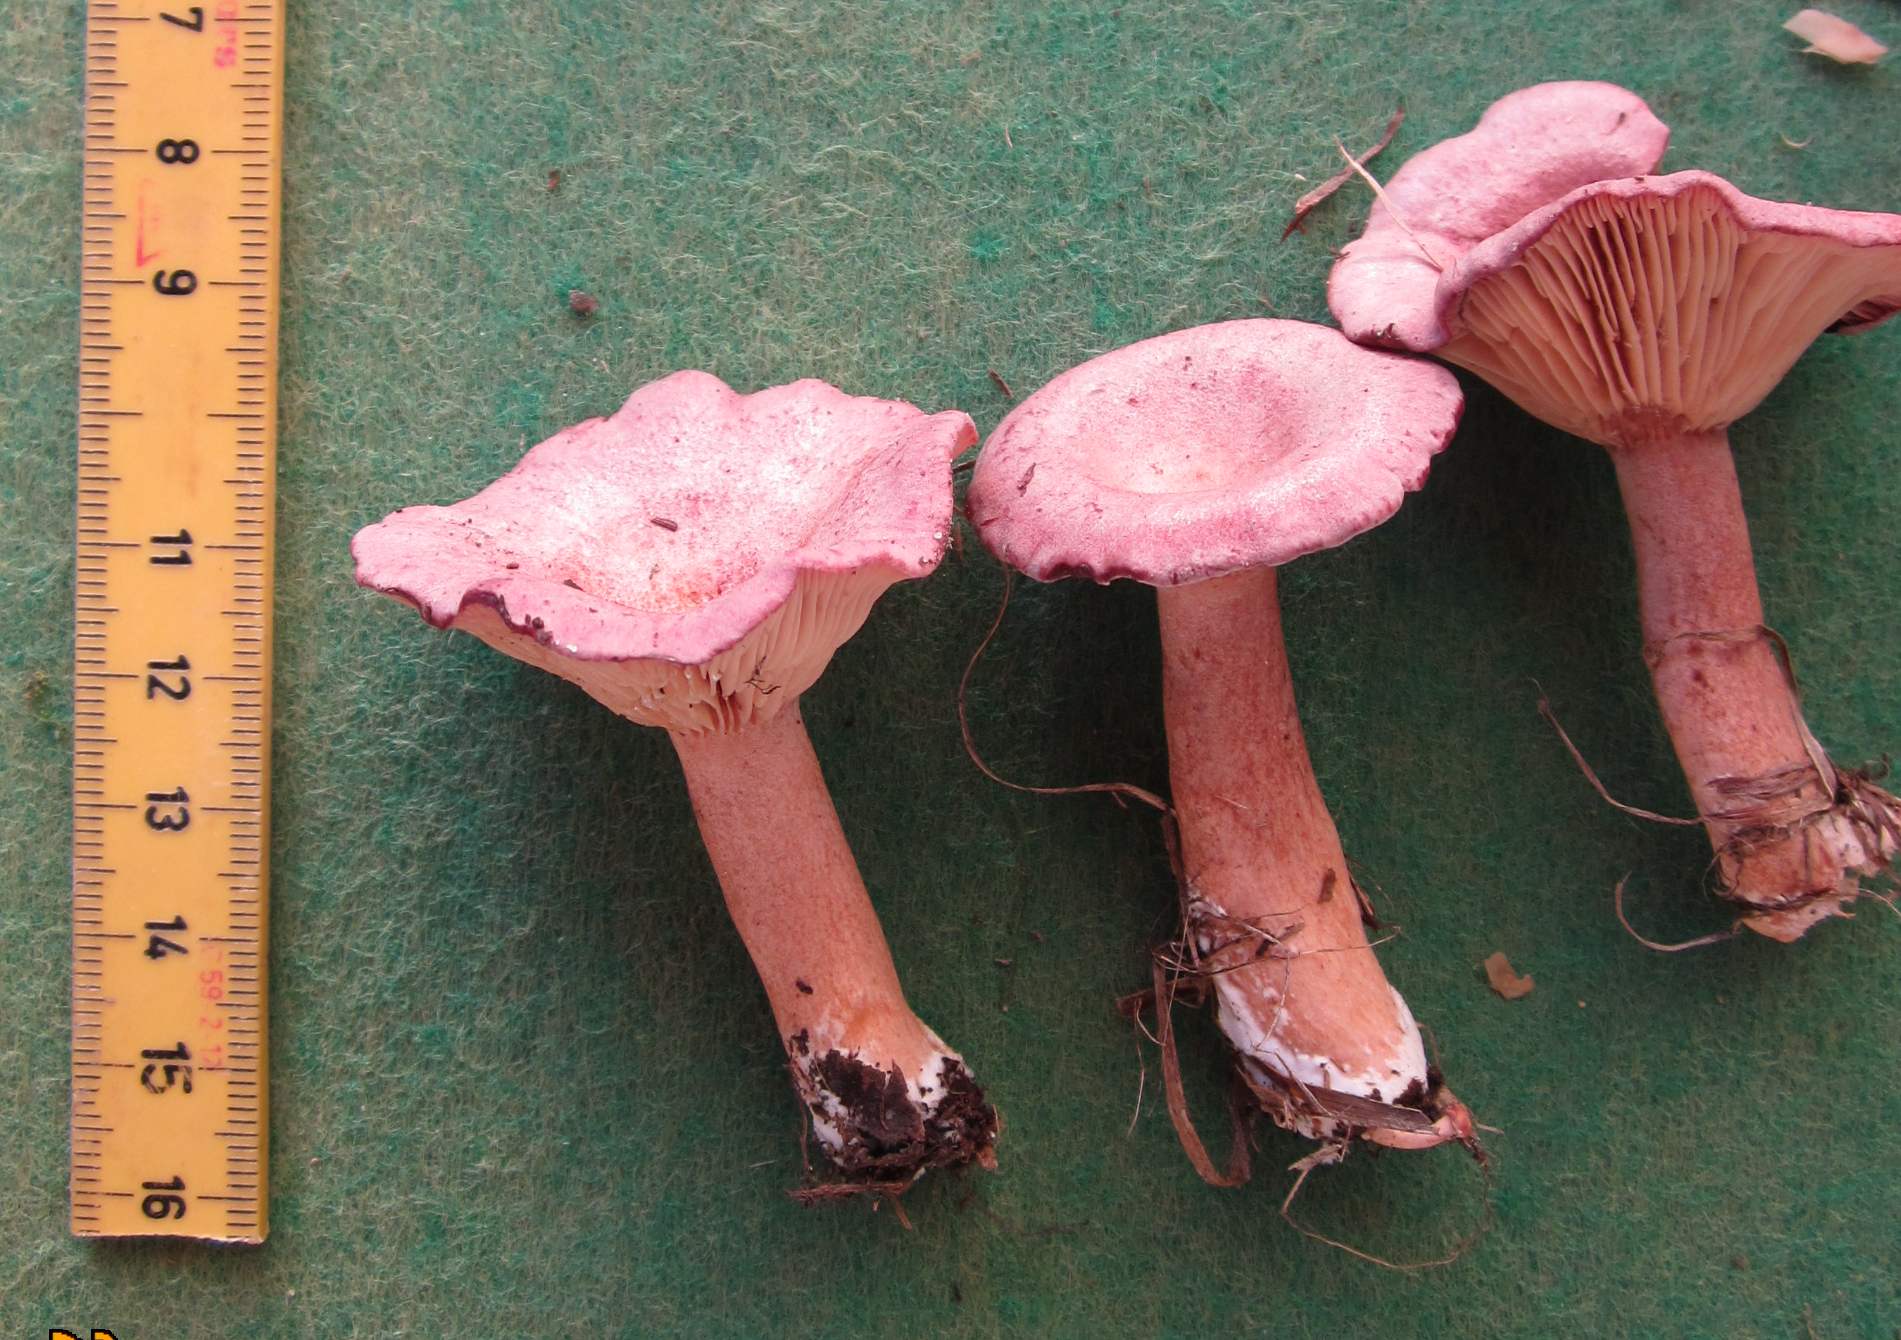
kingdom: Fungi
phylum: Basidiomycota
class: Agaricomycetes
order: Russulales
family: Russulaceae
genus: Lactarius
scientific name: Lactarius lilacinus
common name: lilla mælkehat
